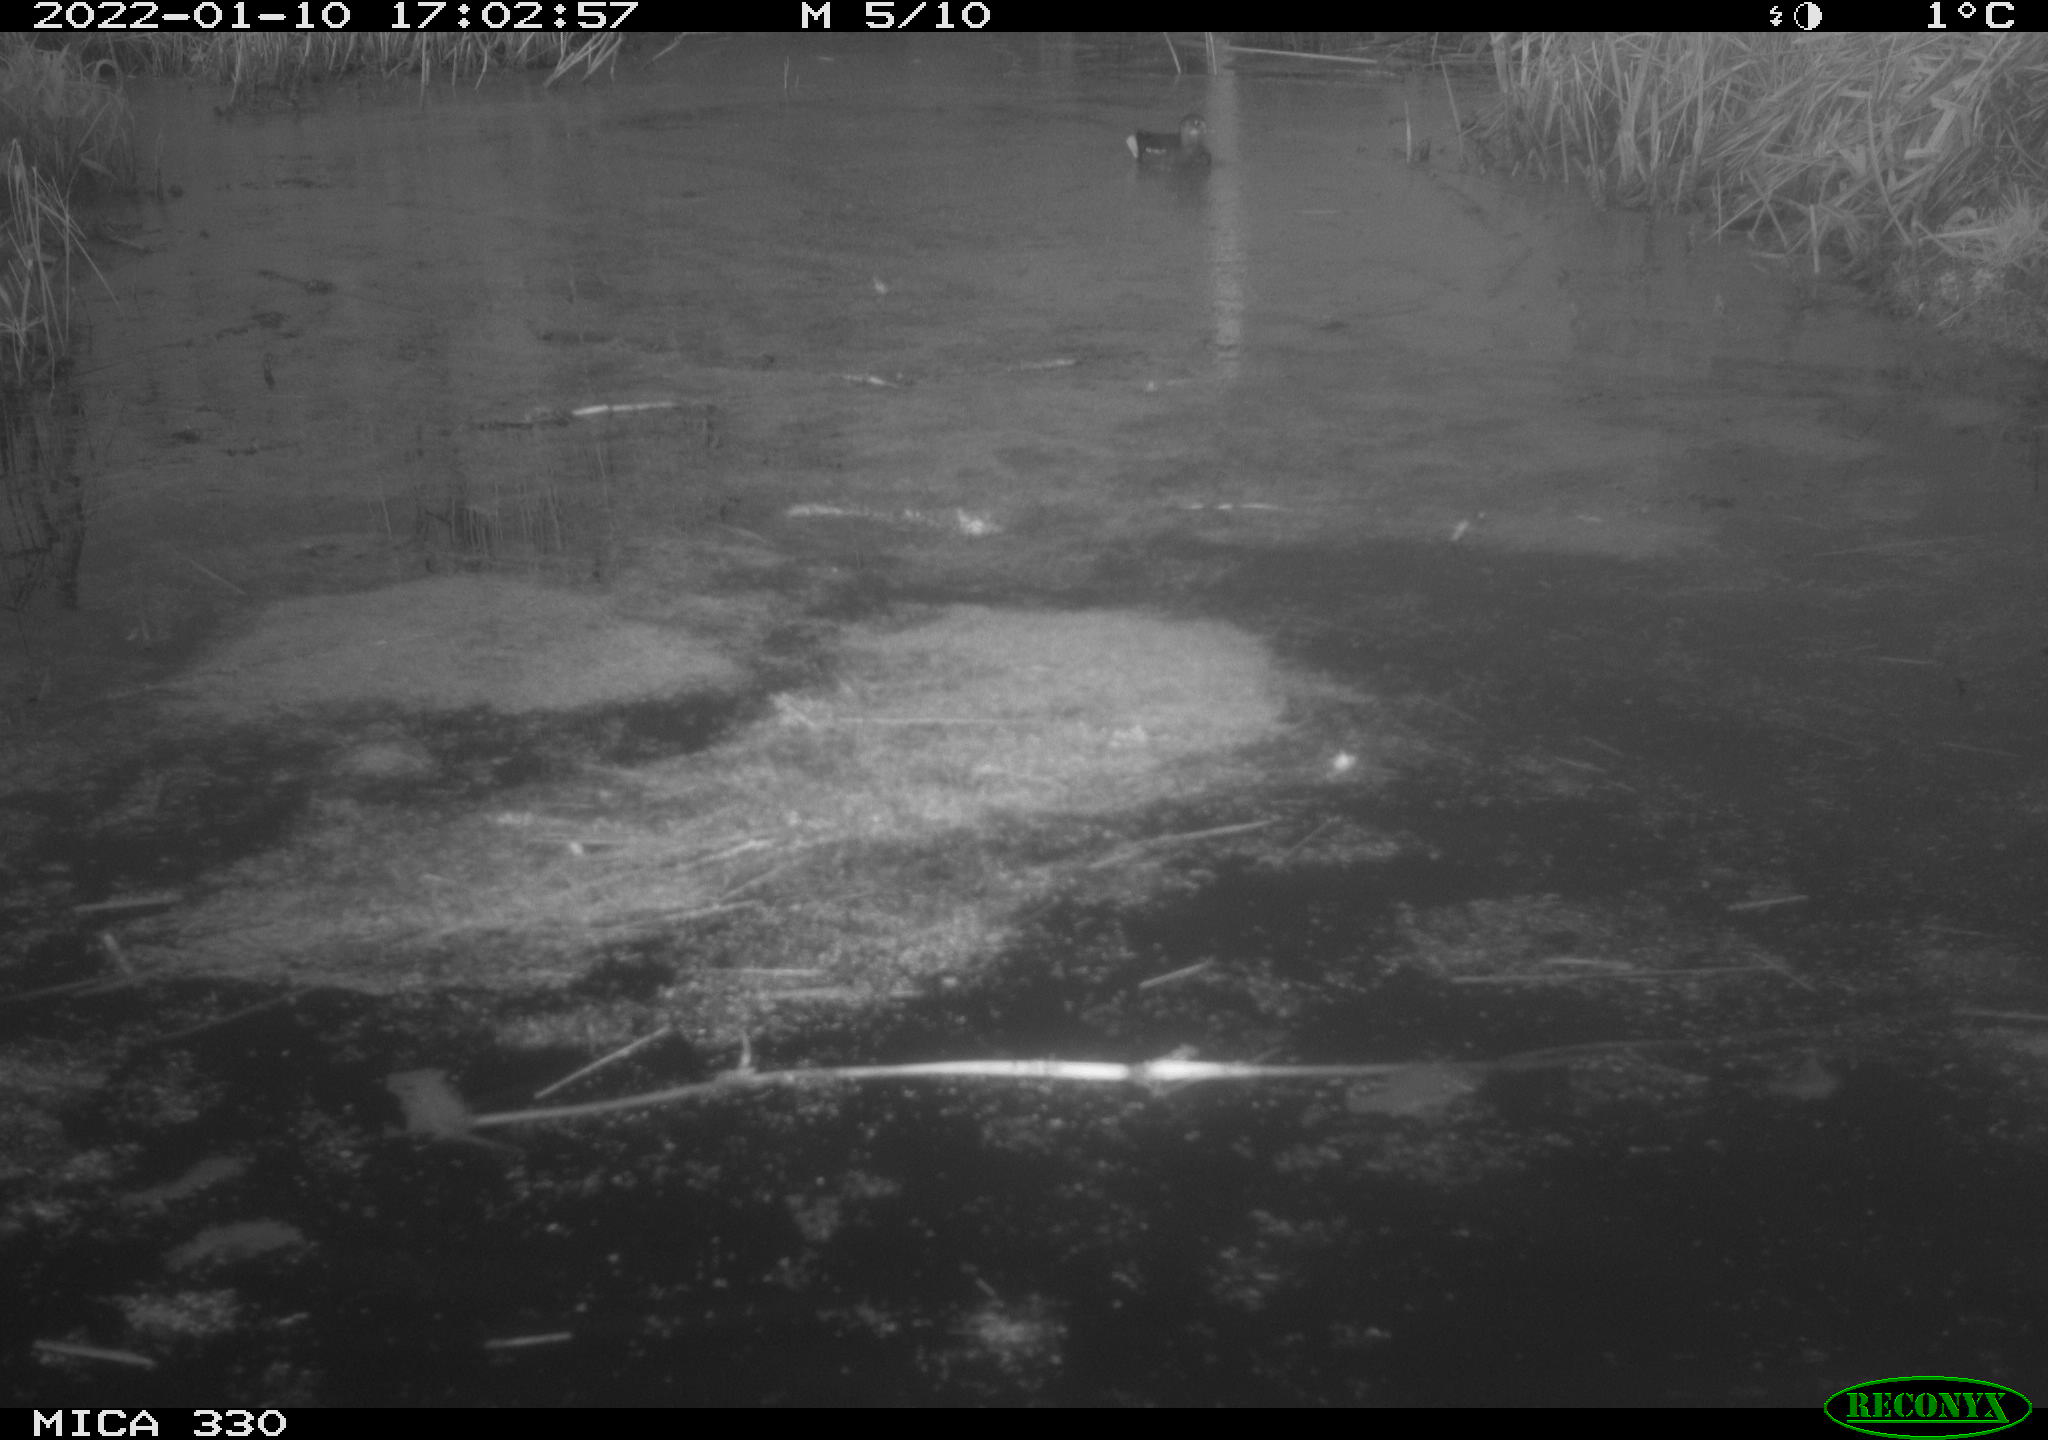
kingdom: Animalia
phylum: Chordata
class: Aves
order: Gruiformes
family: Rallidae
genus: Gallinula
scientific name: Gallinula chloropus
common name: Common moorhen
